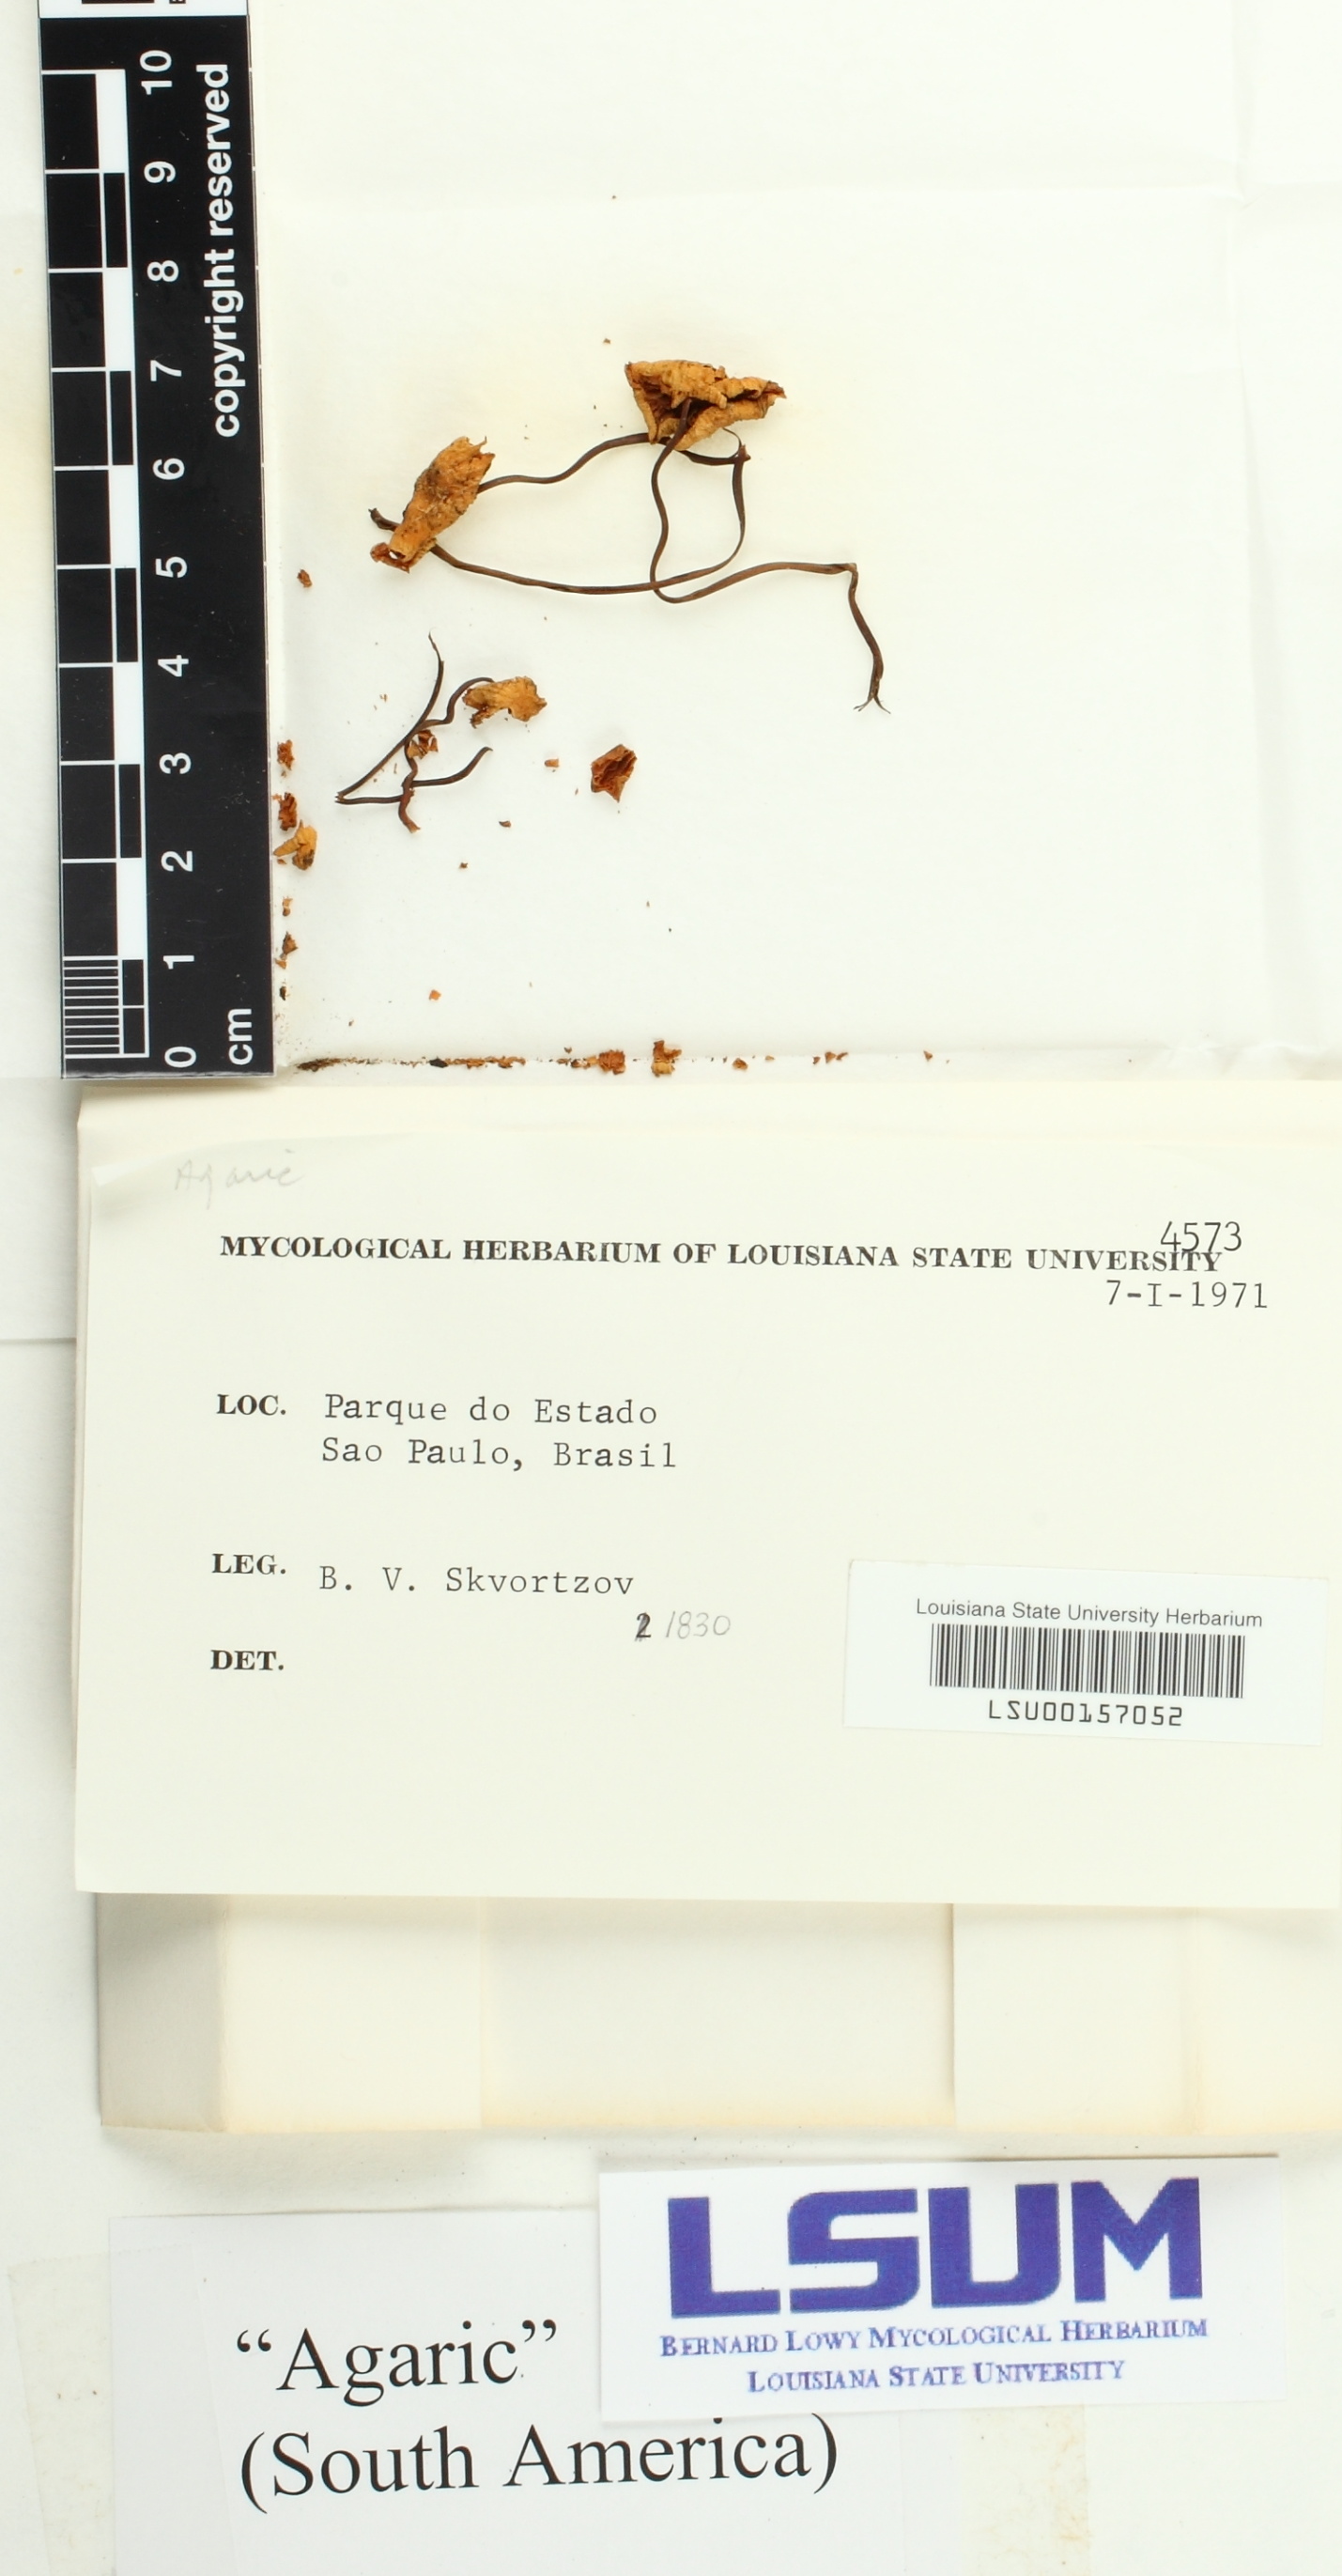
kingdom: Fungi
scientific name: Fungi
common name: Fungi
